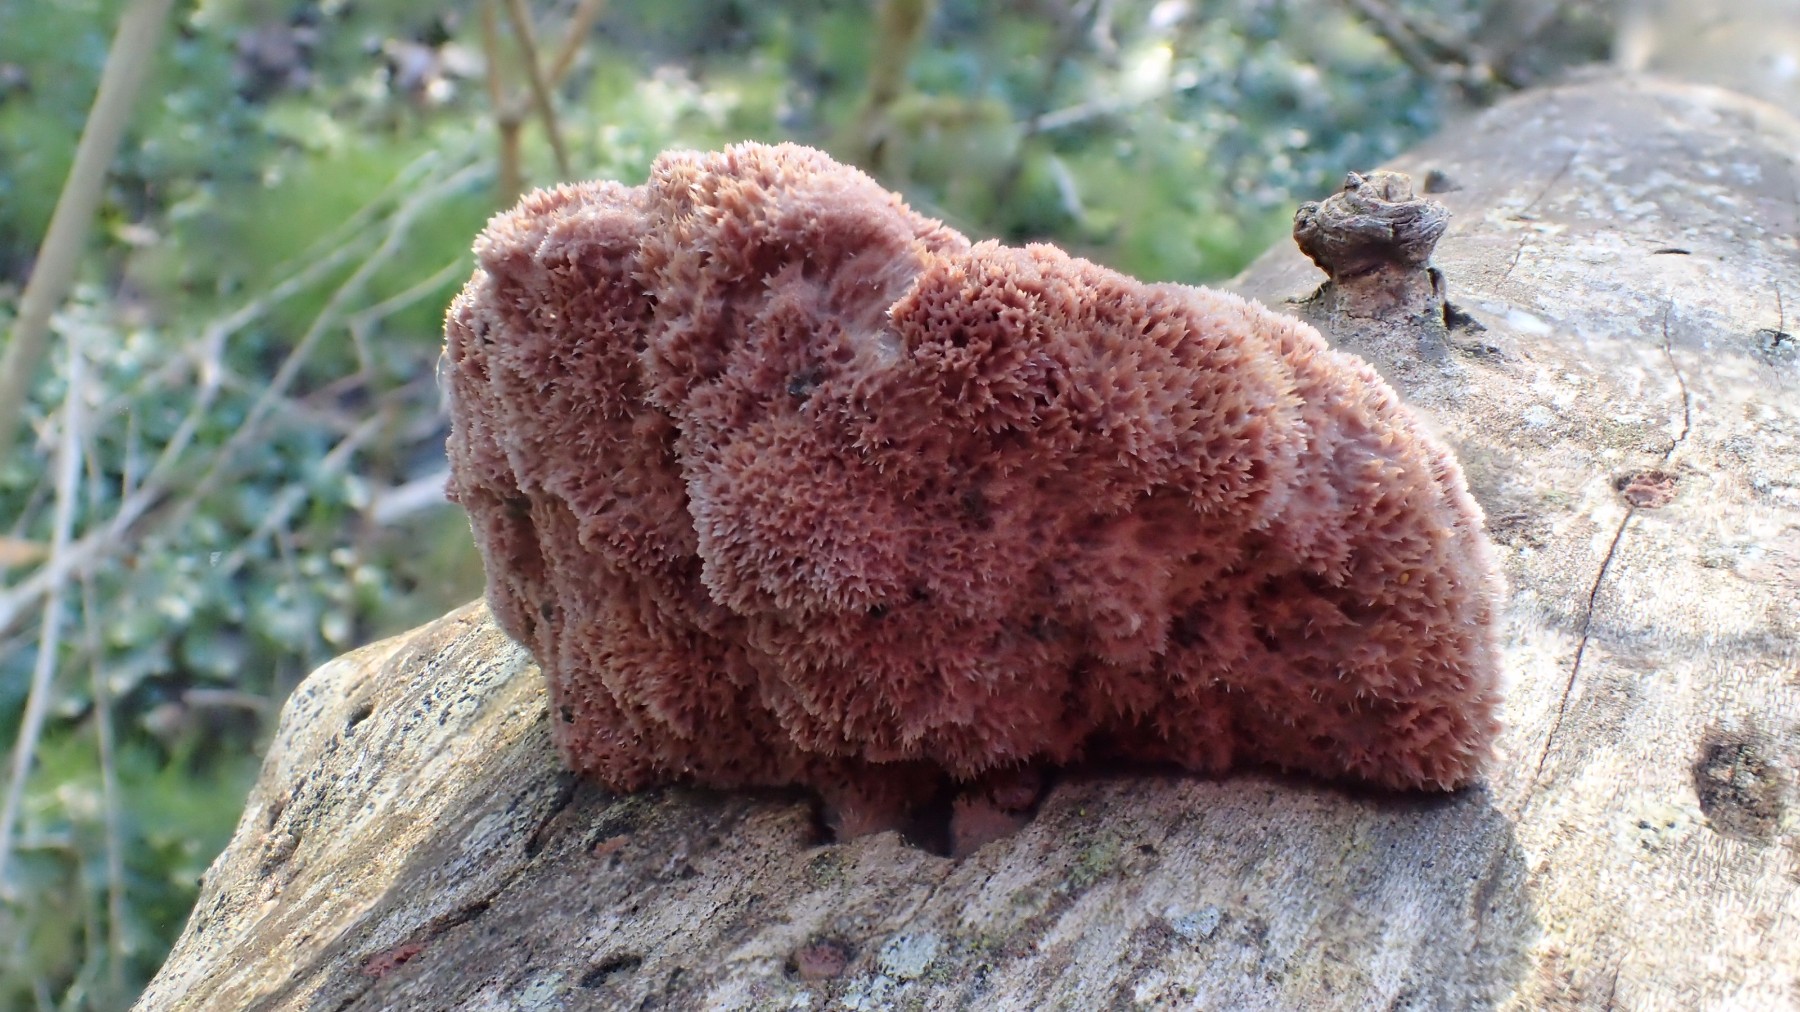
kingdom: Fungi
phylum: Basidiomycota
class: Agaricomycetes
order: Polyporales
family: Phanerochaetaceae
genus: Hapalopilus
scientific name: Hapalopilus rutilans
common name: rødlig okkerporesvamp
